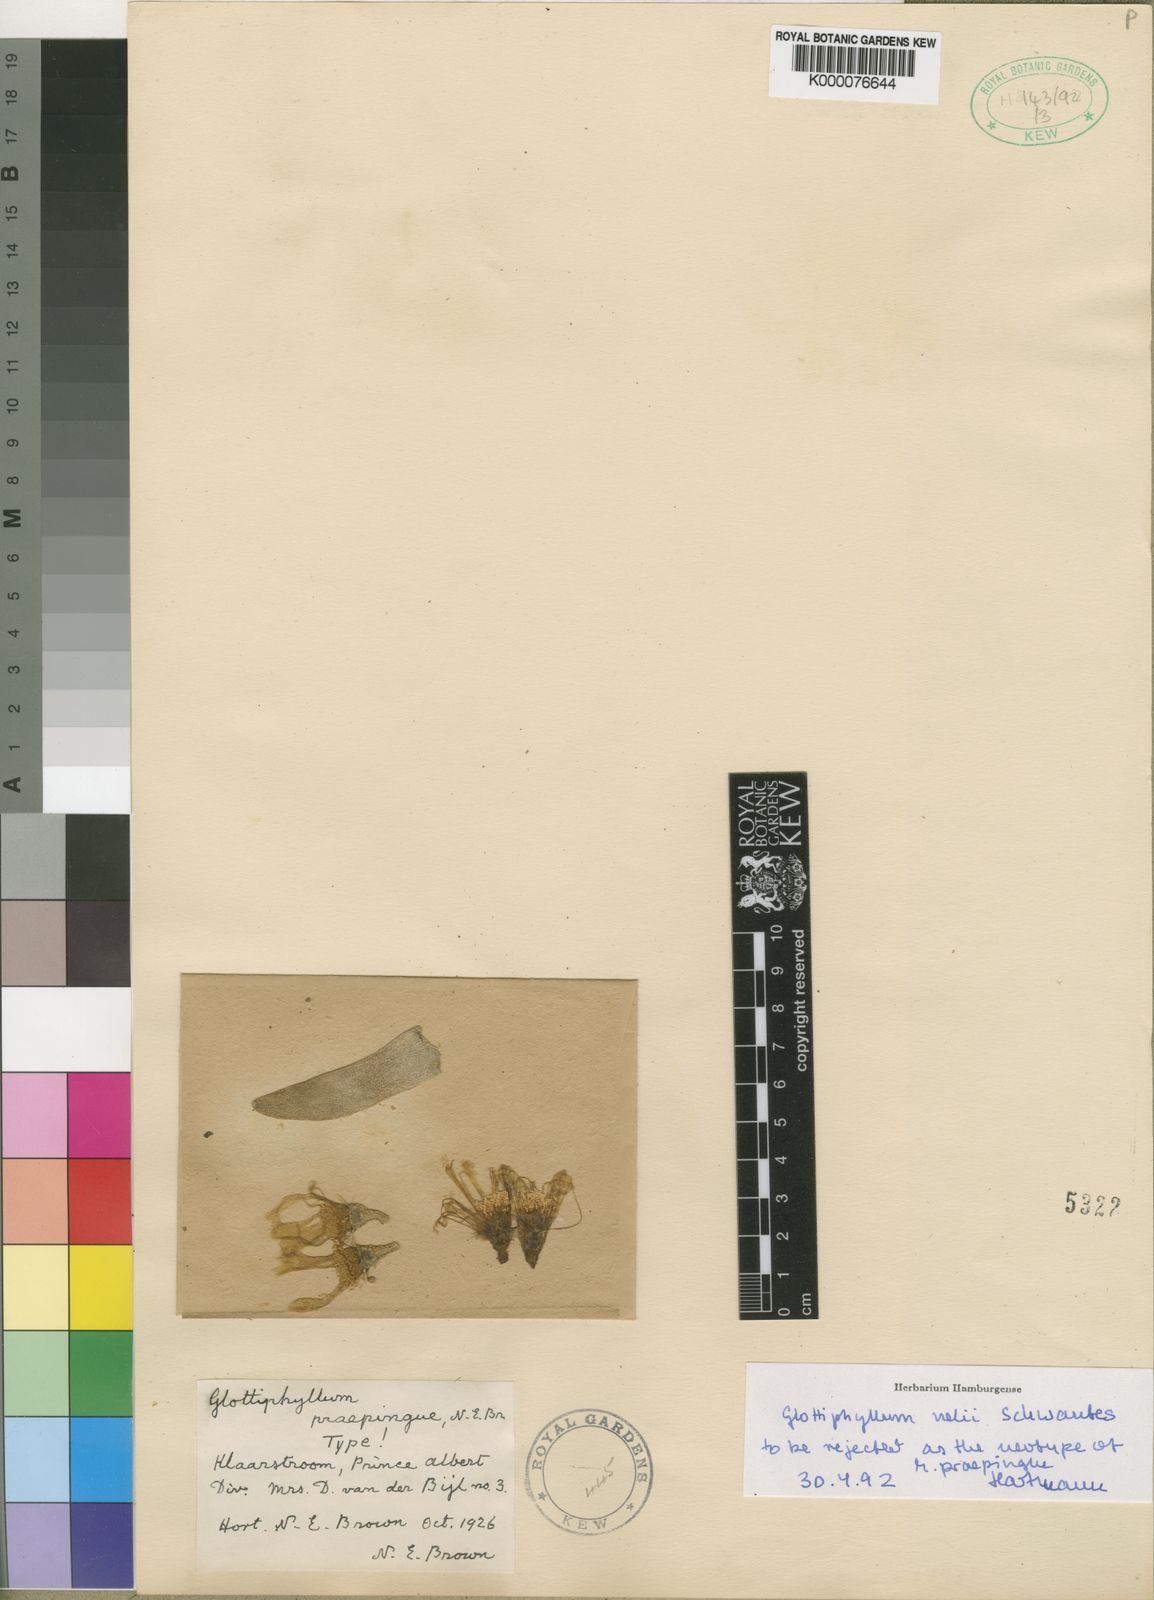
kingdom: Plantae
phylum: Tracheophyta
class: Magnoliopsida
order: Caryophyllales
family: Aizoaceae
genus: Glottiphyllum
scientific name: Glottiphyllum nelii
